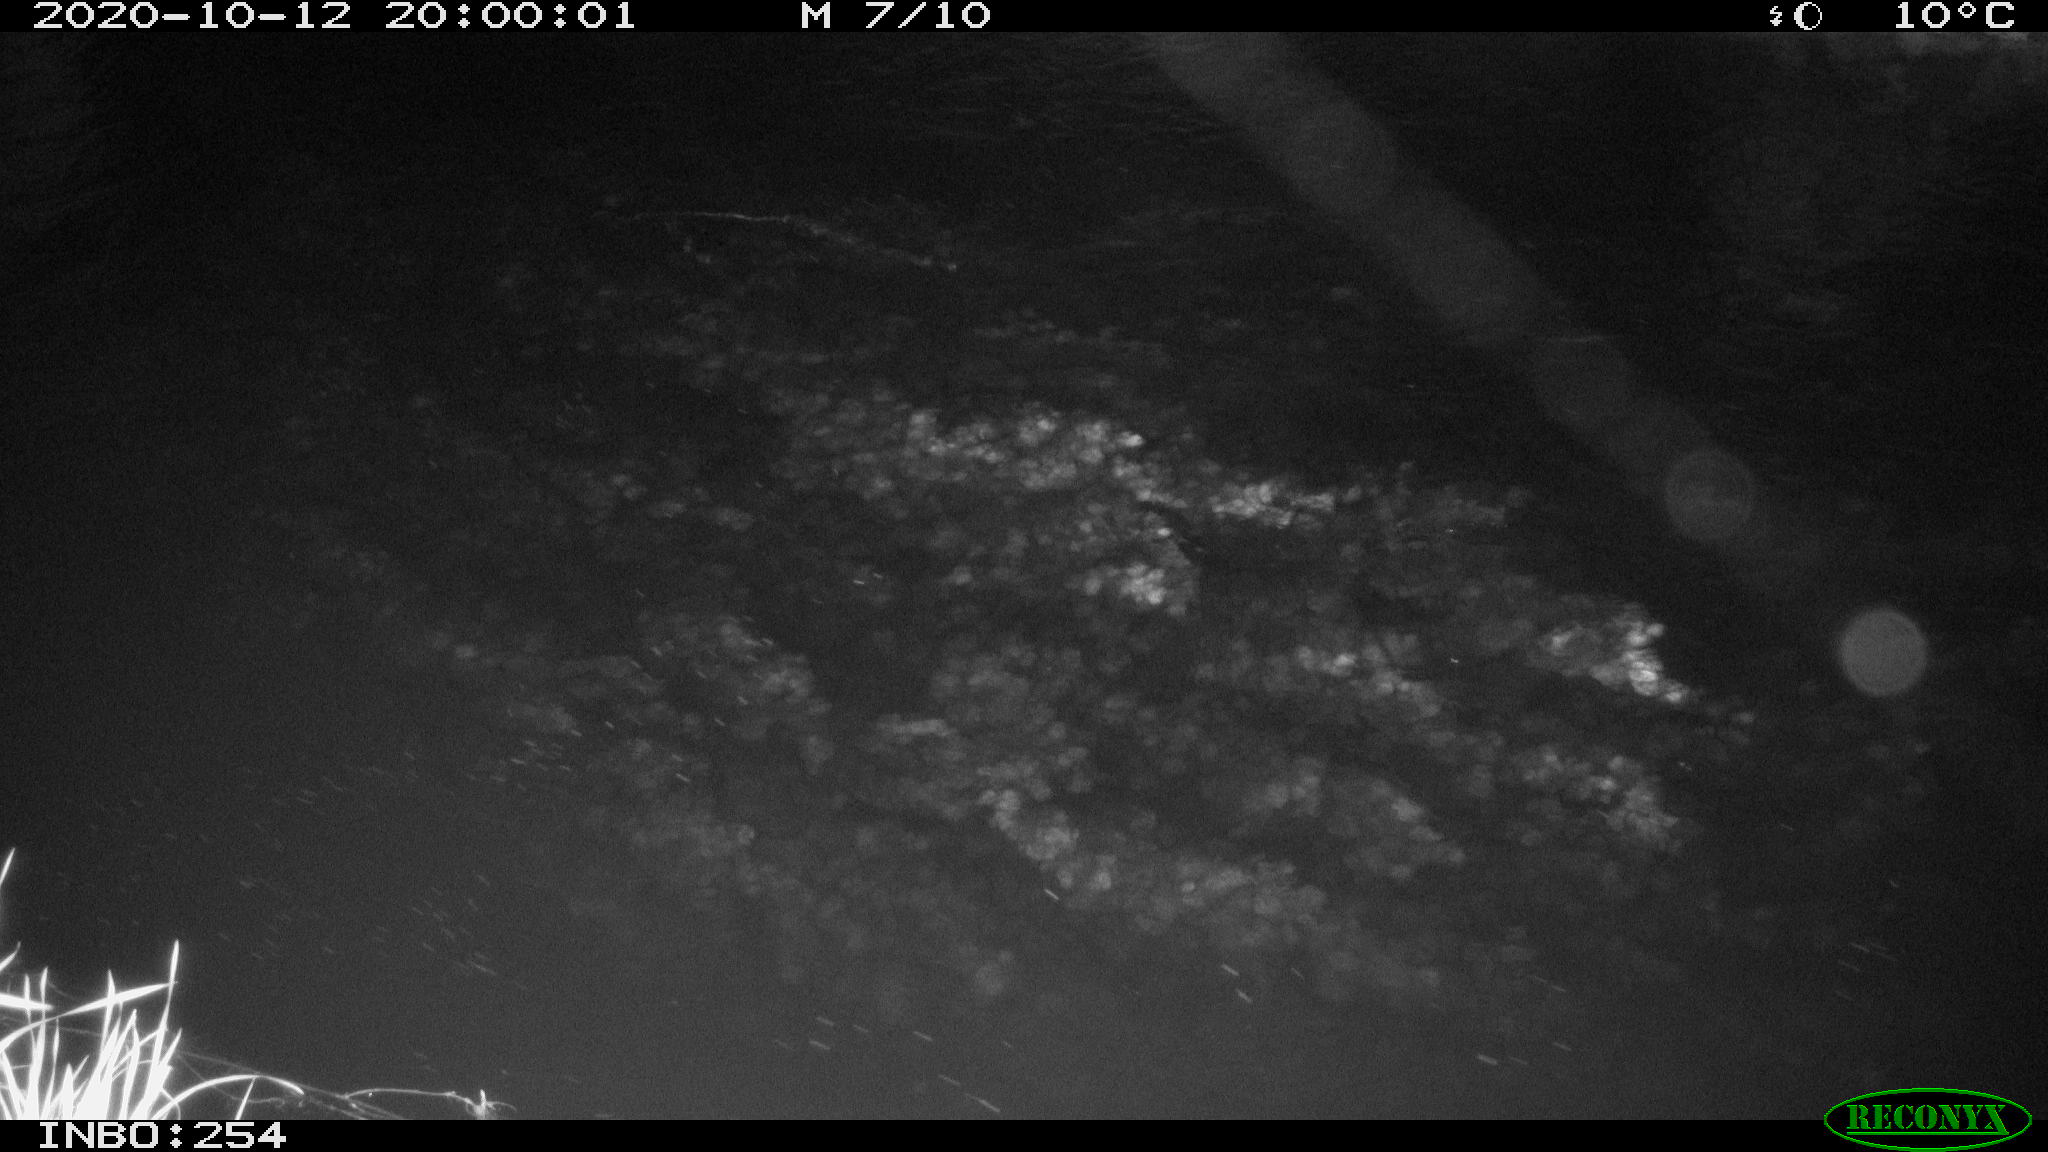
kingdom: Animalia
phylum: Chordata
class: Mammalia
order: Rodentia
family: Muridae
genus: Rattus
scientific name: Rattus norvegicus
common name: Brown rat
